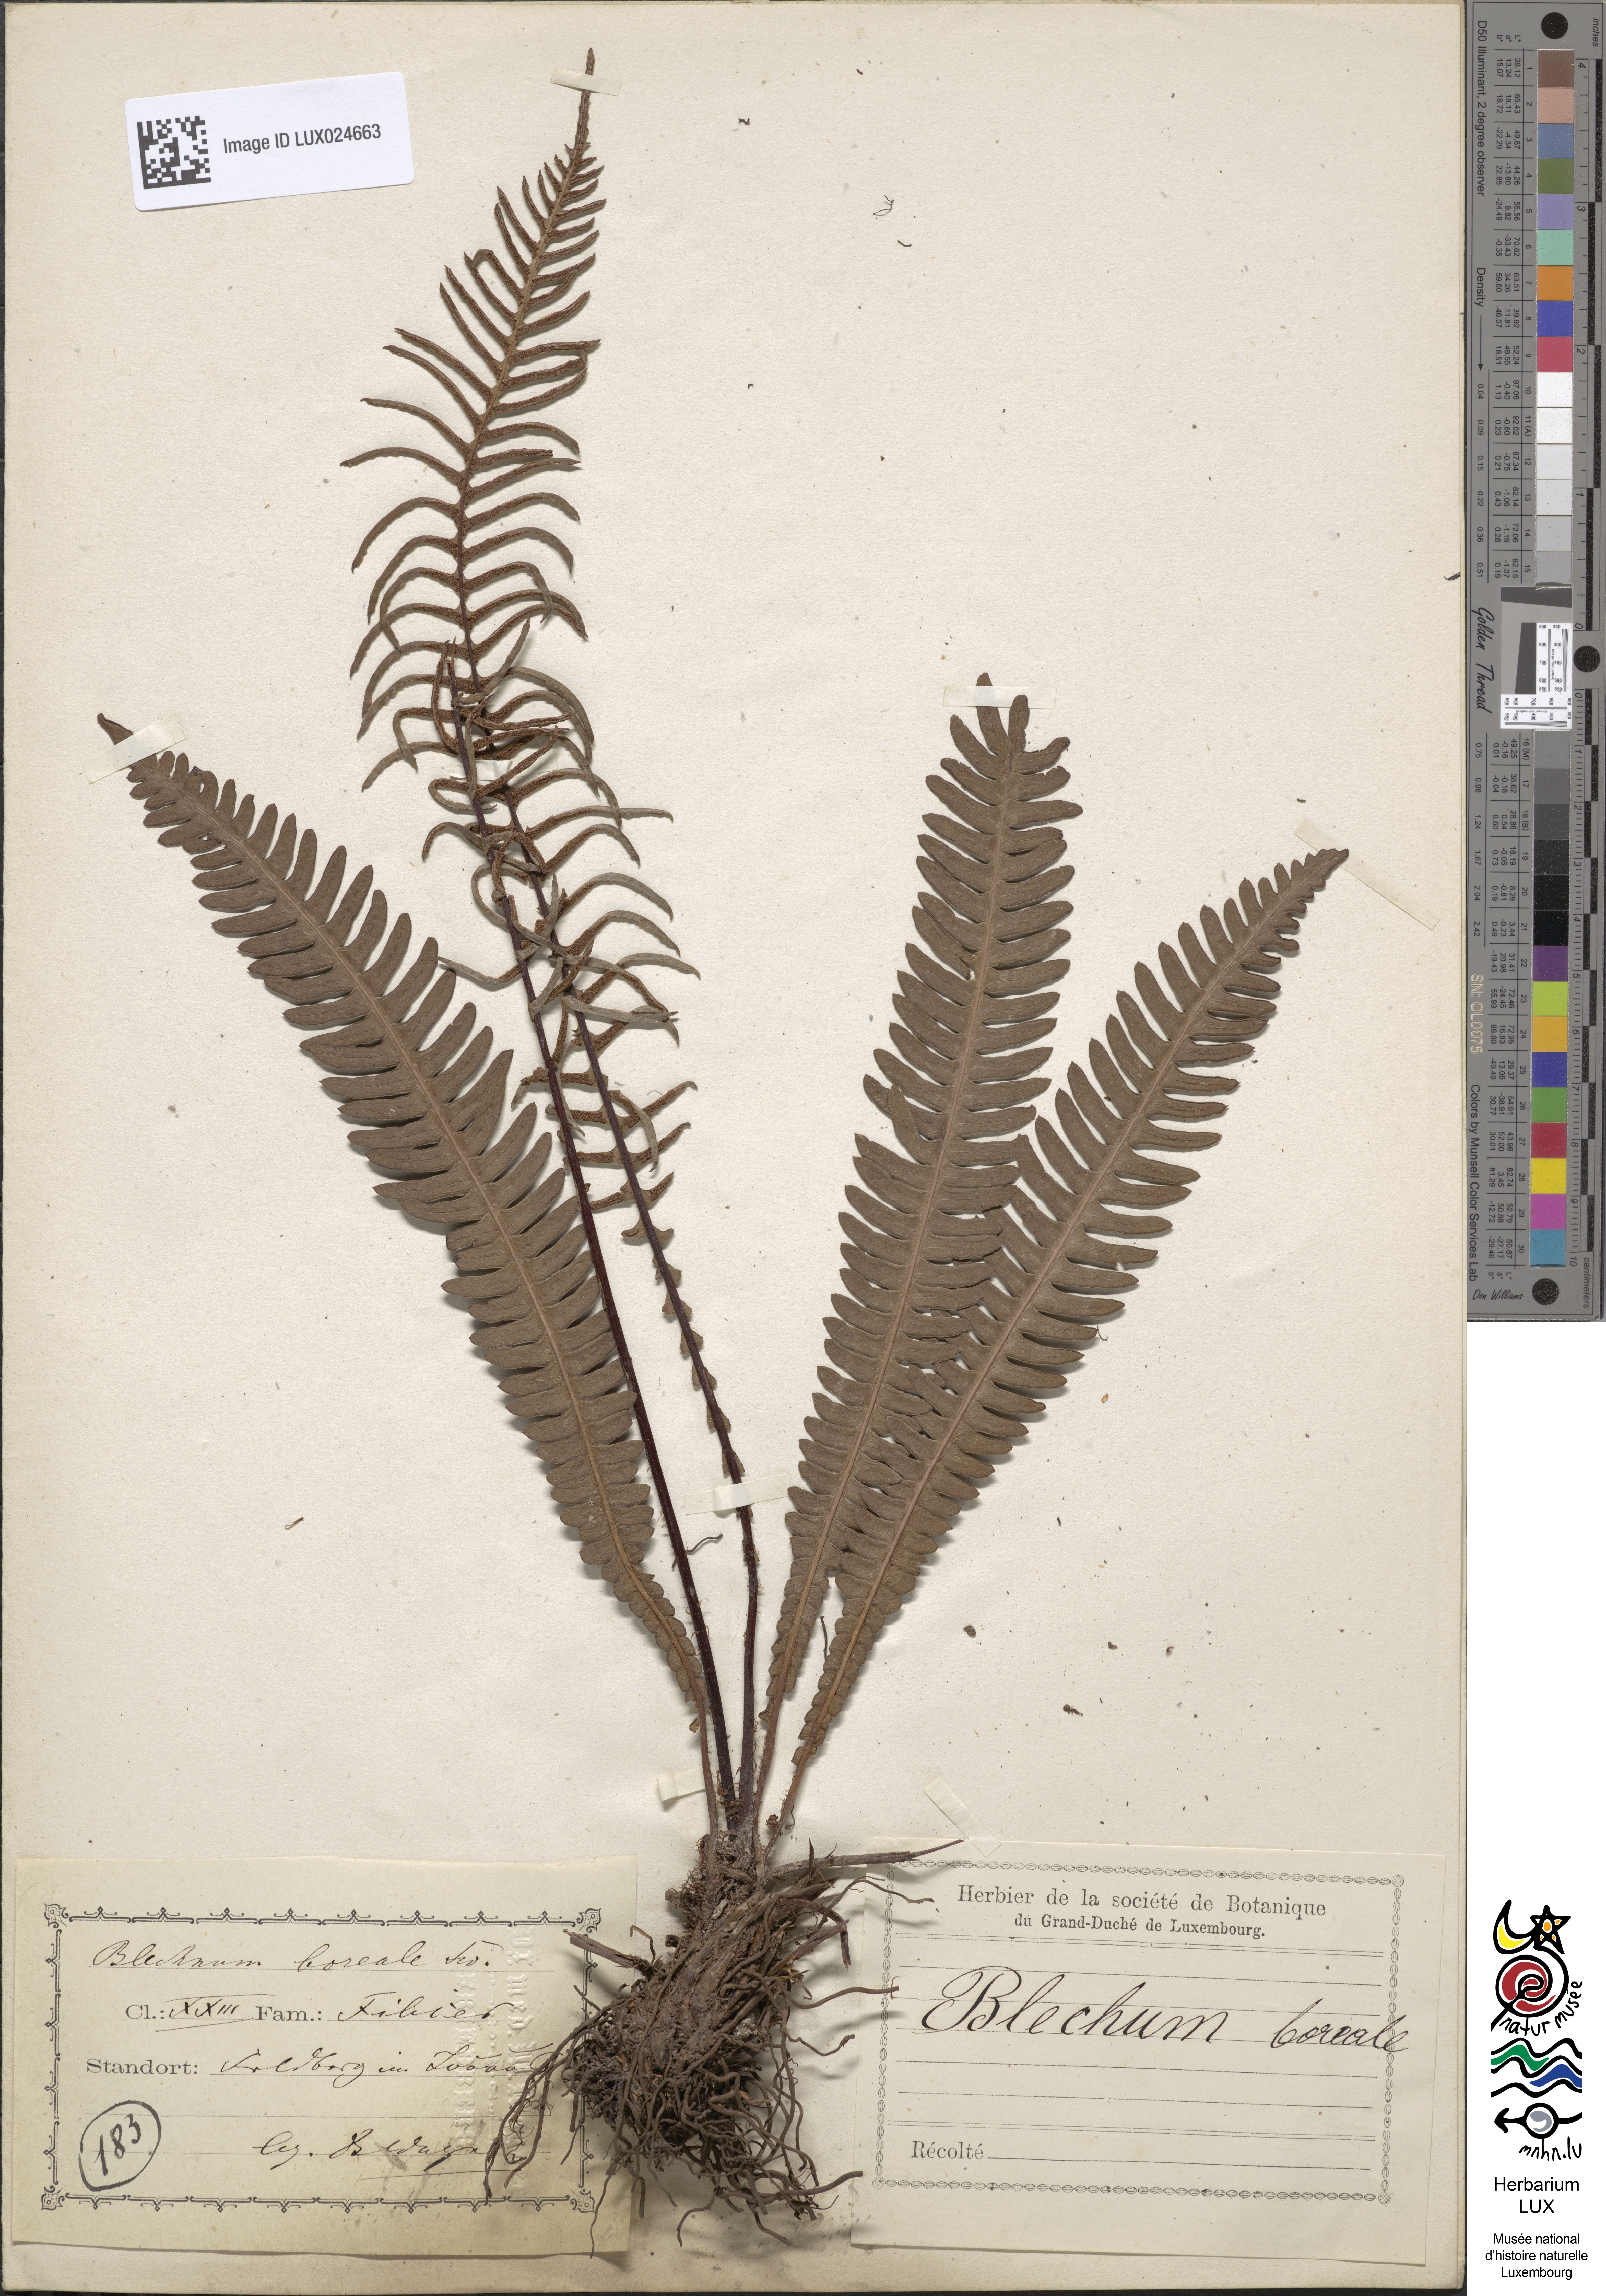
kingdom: Plantae
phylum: Tracheophyta
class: Polypodiopsida
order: Polypodiales
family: Blechnaceae
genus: Struthiopteris
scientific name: Struthiopteris spicant
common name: Deer fern
